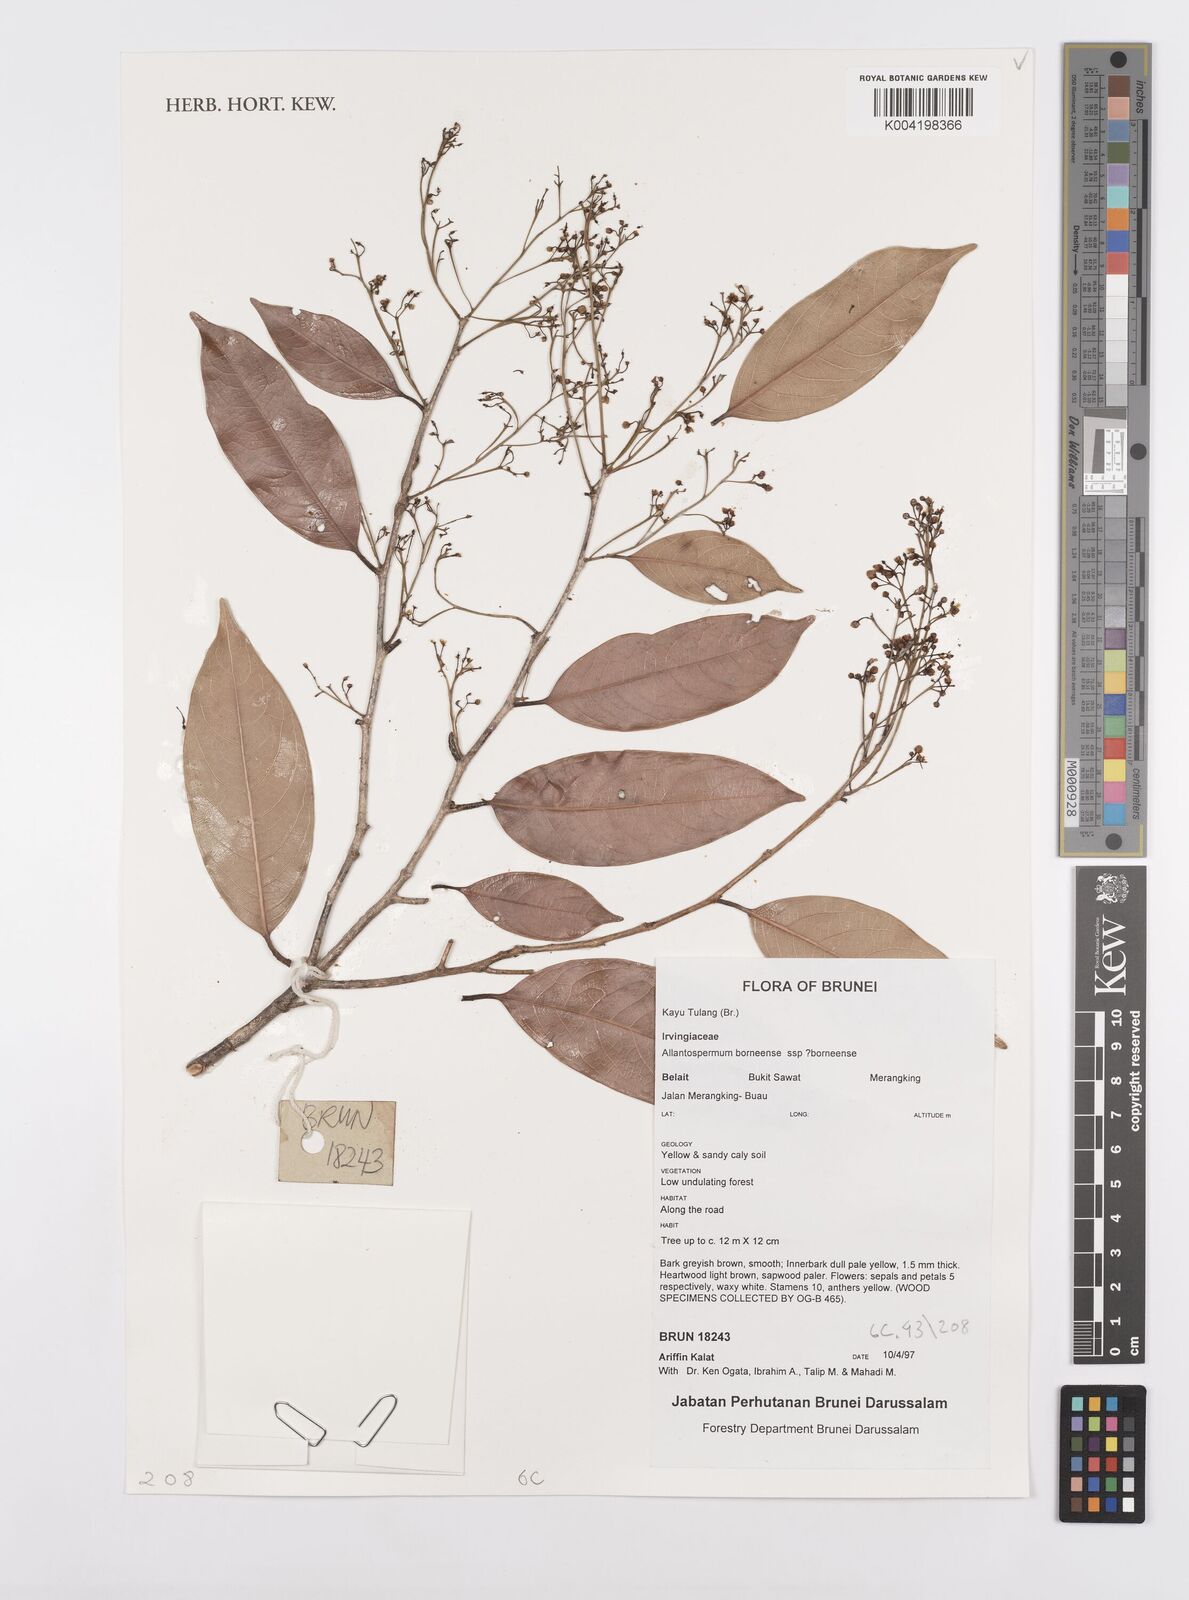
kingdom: Plantae
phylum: Tracheophyta
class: Magnoliopsida
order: Malpighiales
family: Ixonanthaceae
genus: Allantospermum
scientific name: Allantospermum borneense
